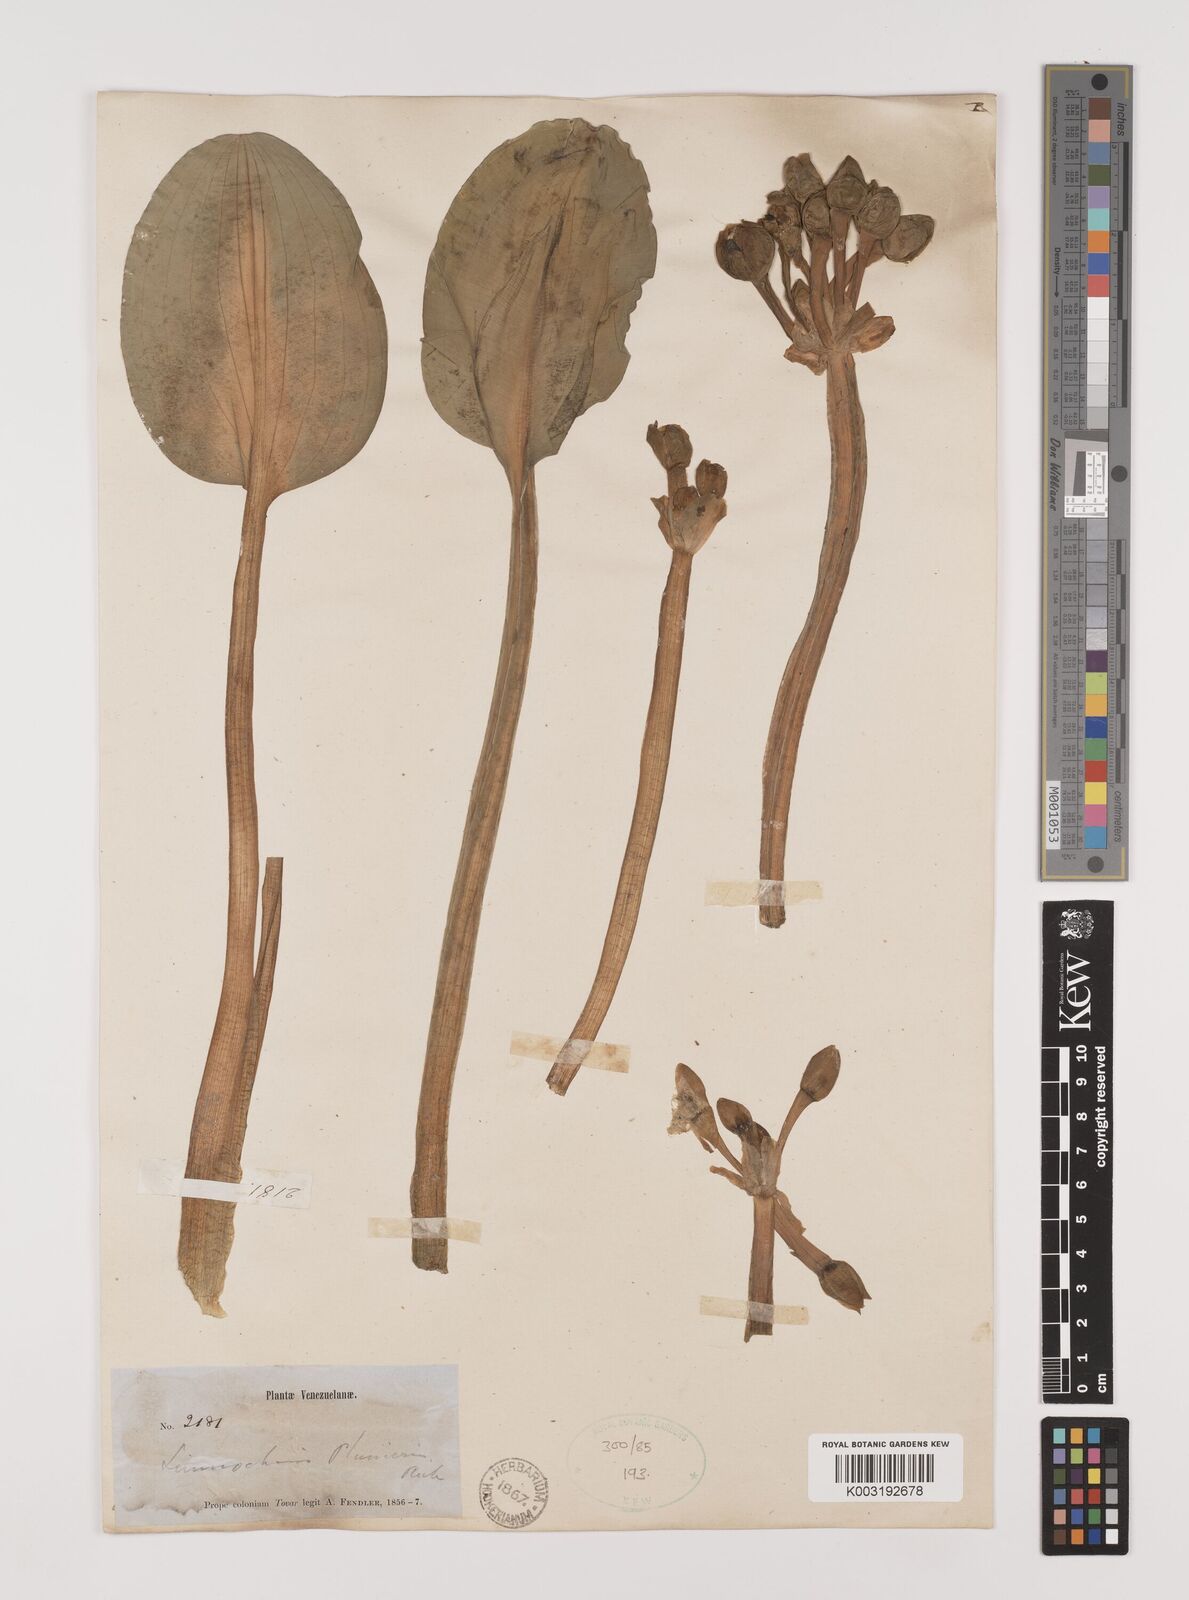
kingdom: Plantae
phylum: Tracheophyta
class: Liliopsida
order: Alismatales
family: Alismataceae
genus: Limnocharis
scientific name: Limnocharis flava
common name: Sawah-flower-rush
